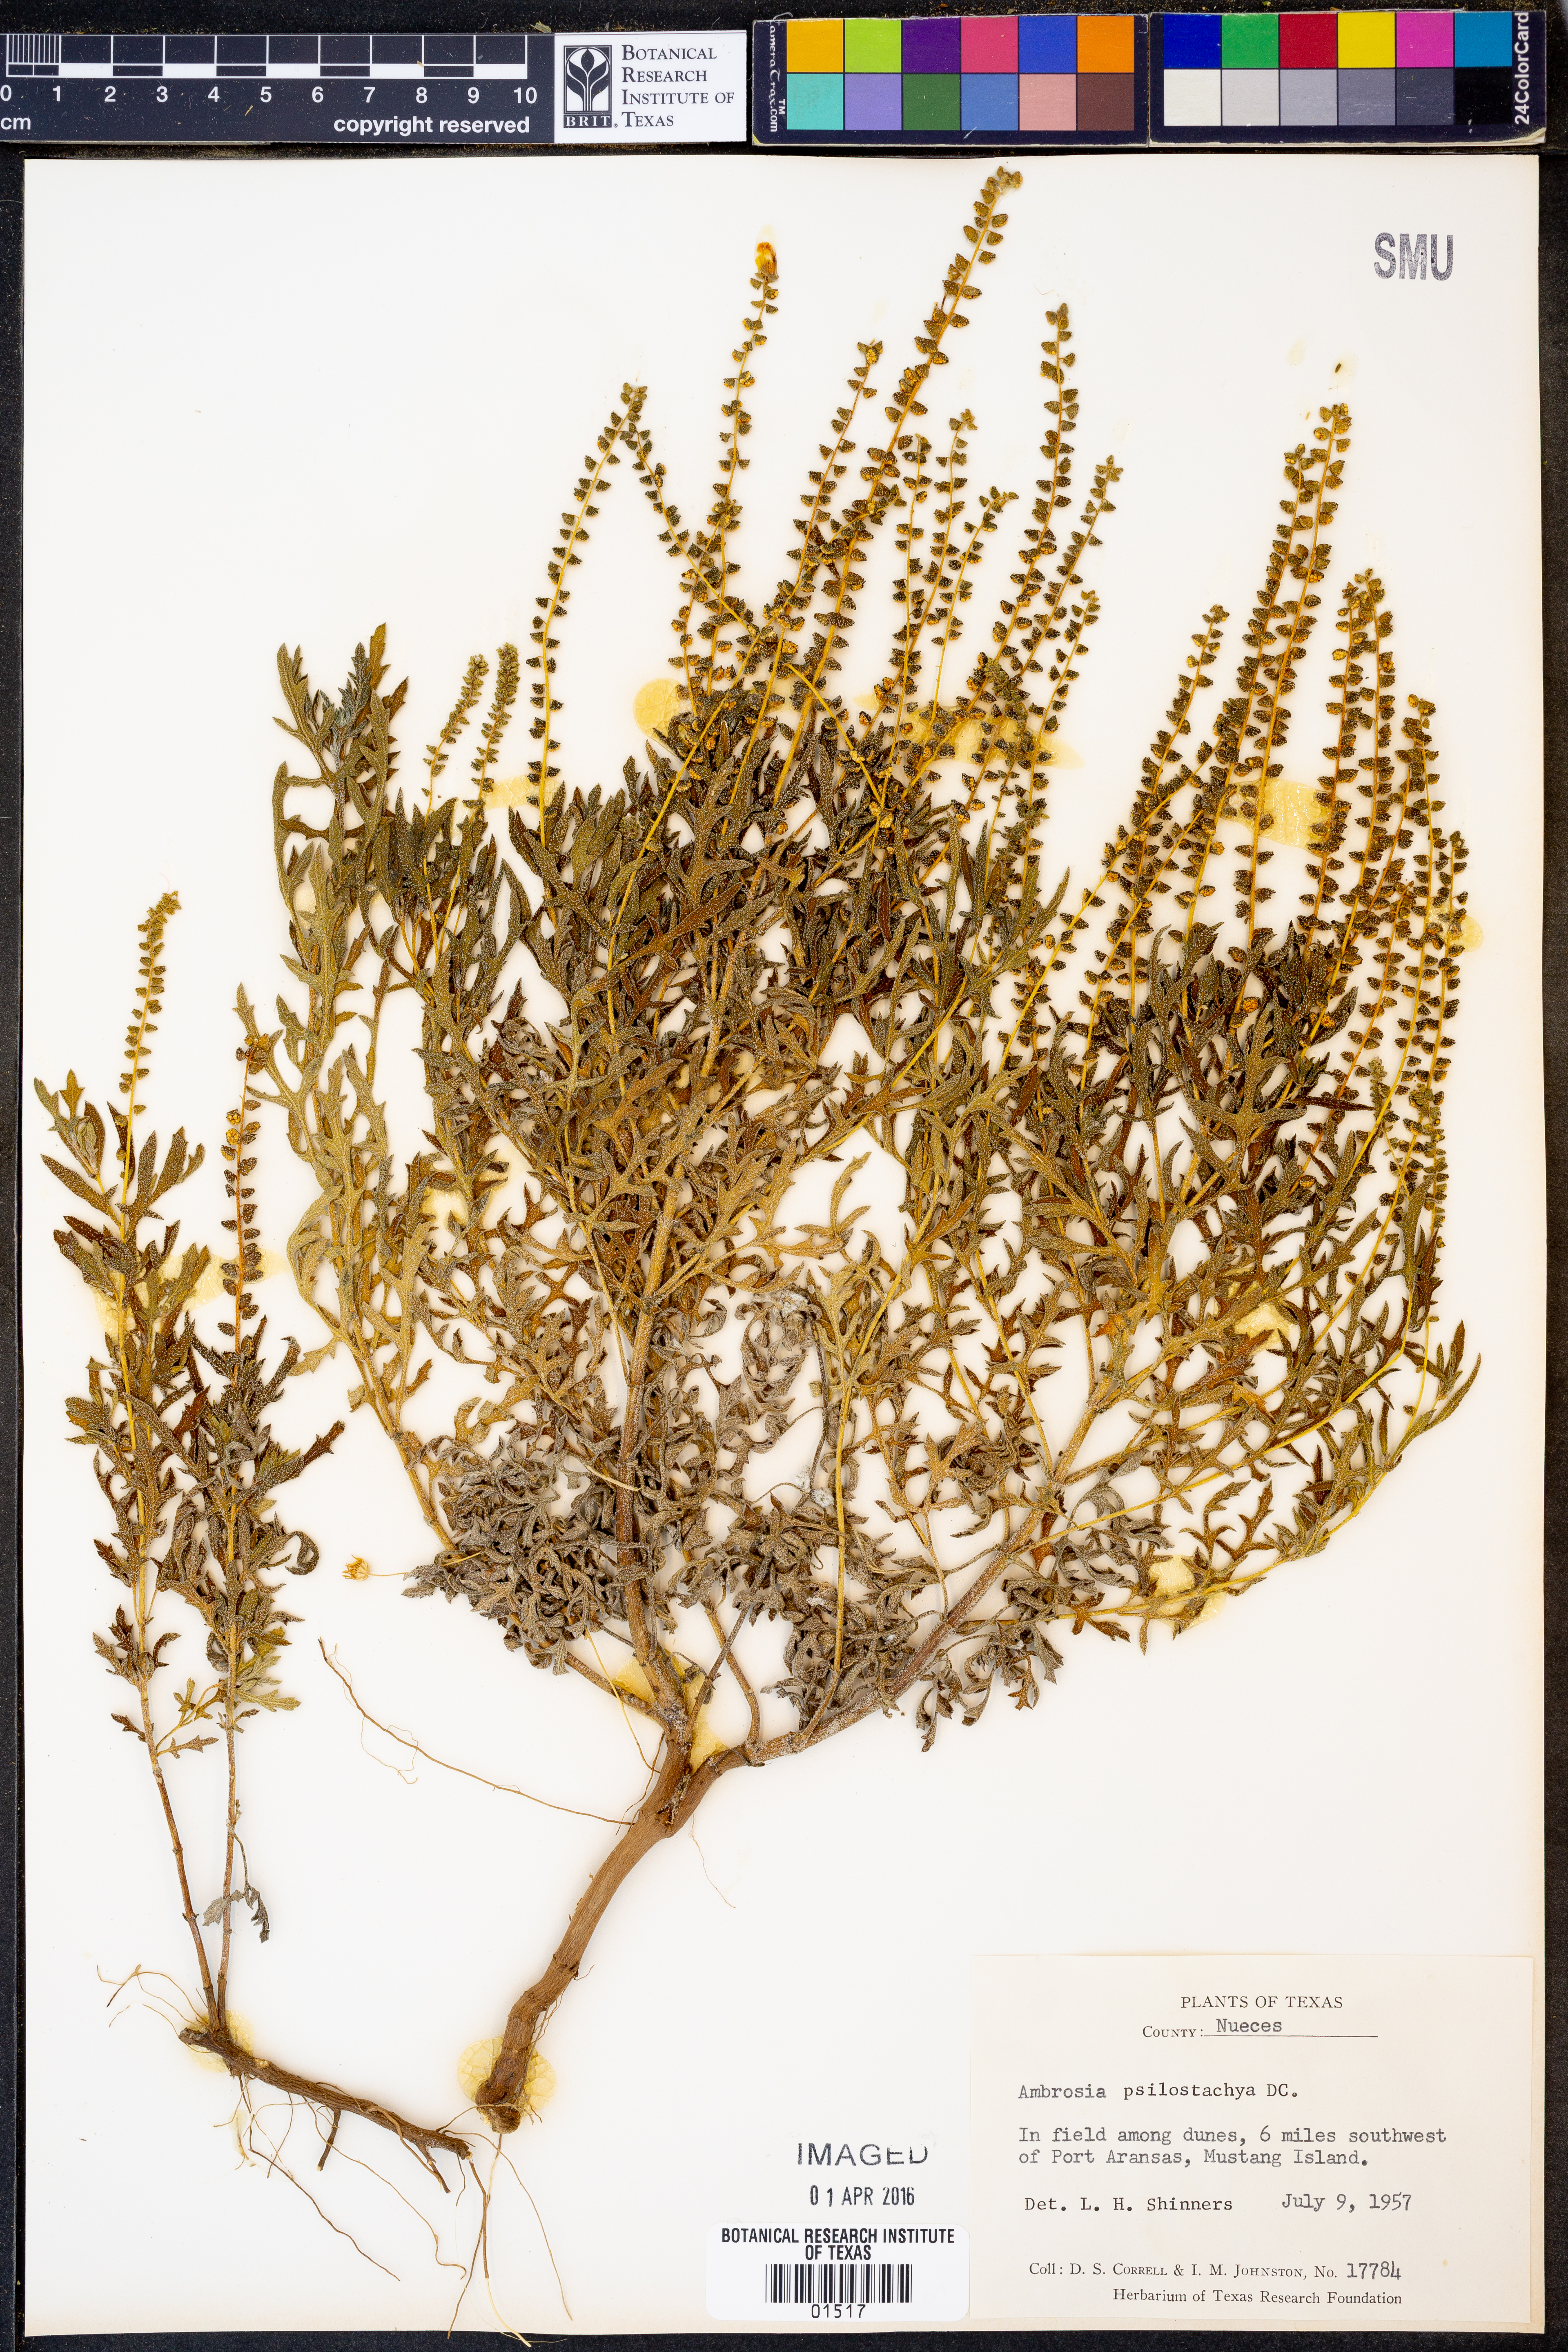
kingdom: Plantae
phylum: Tracheophyta
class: Magnoliopsida
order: Asterales
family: Asteraceae
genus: Ambrosia
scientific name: Ambrosia psilostachya
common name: Perennial ragweed
